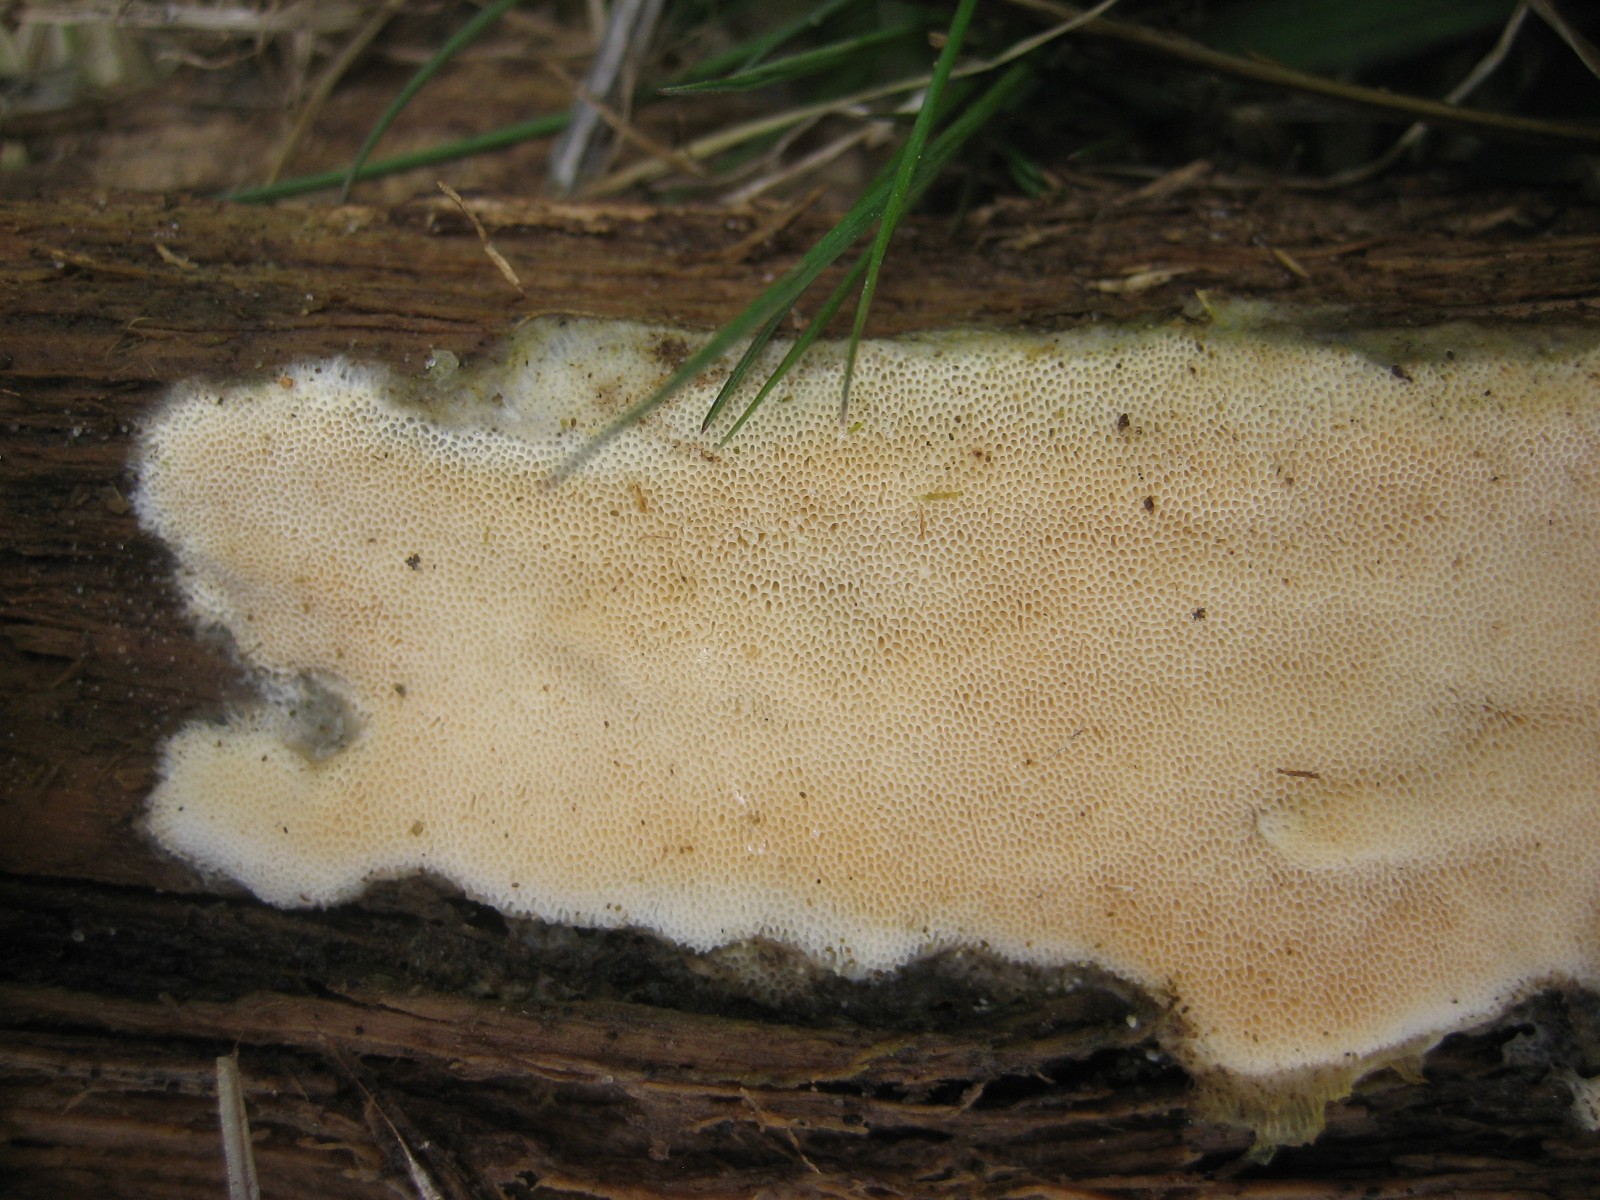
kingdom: Fungi
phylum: Basidiomycota
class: Agaricomycetes
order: Polyporales
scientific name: Polyporales
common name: poresvampordenen
